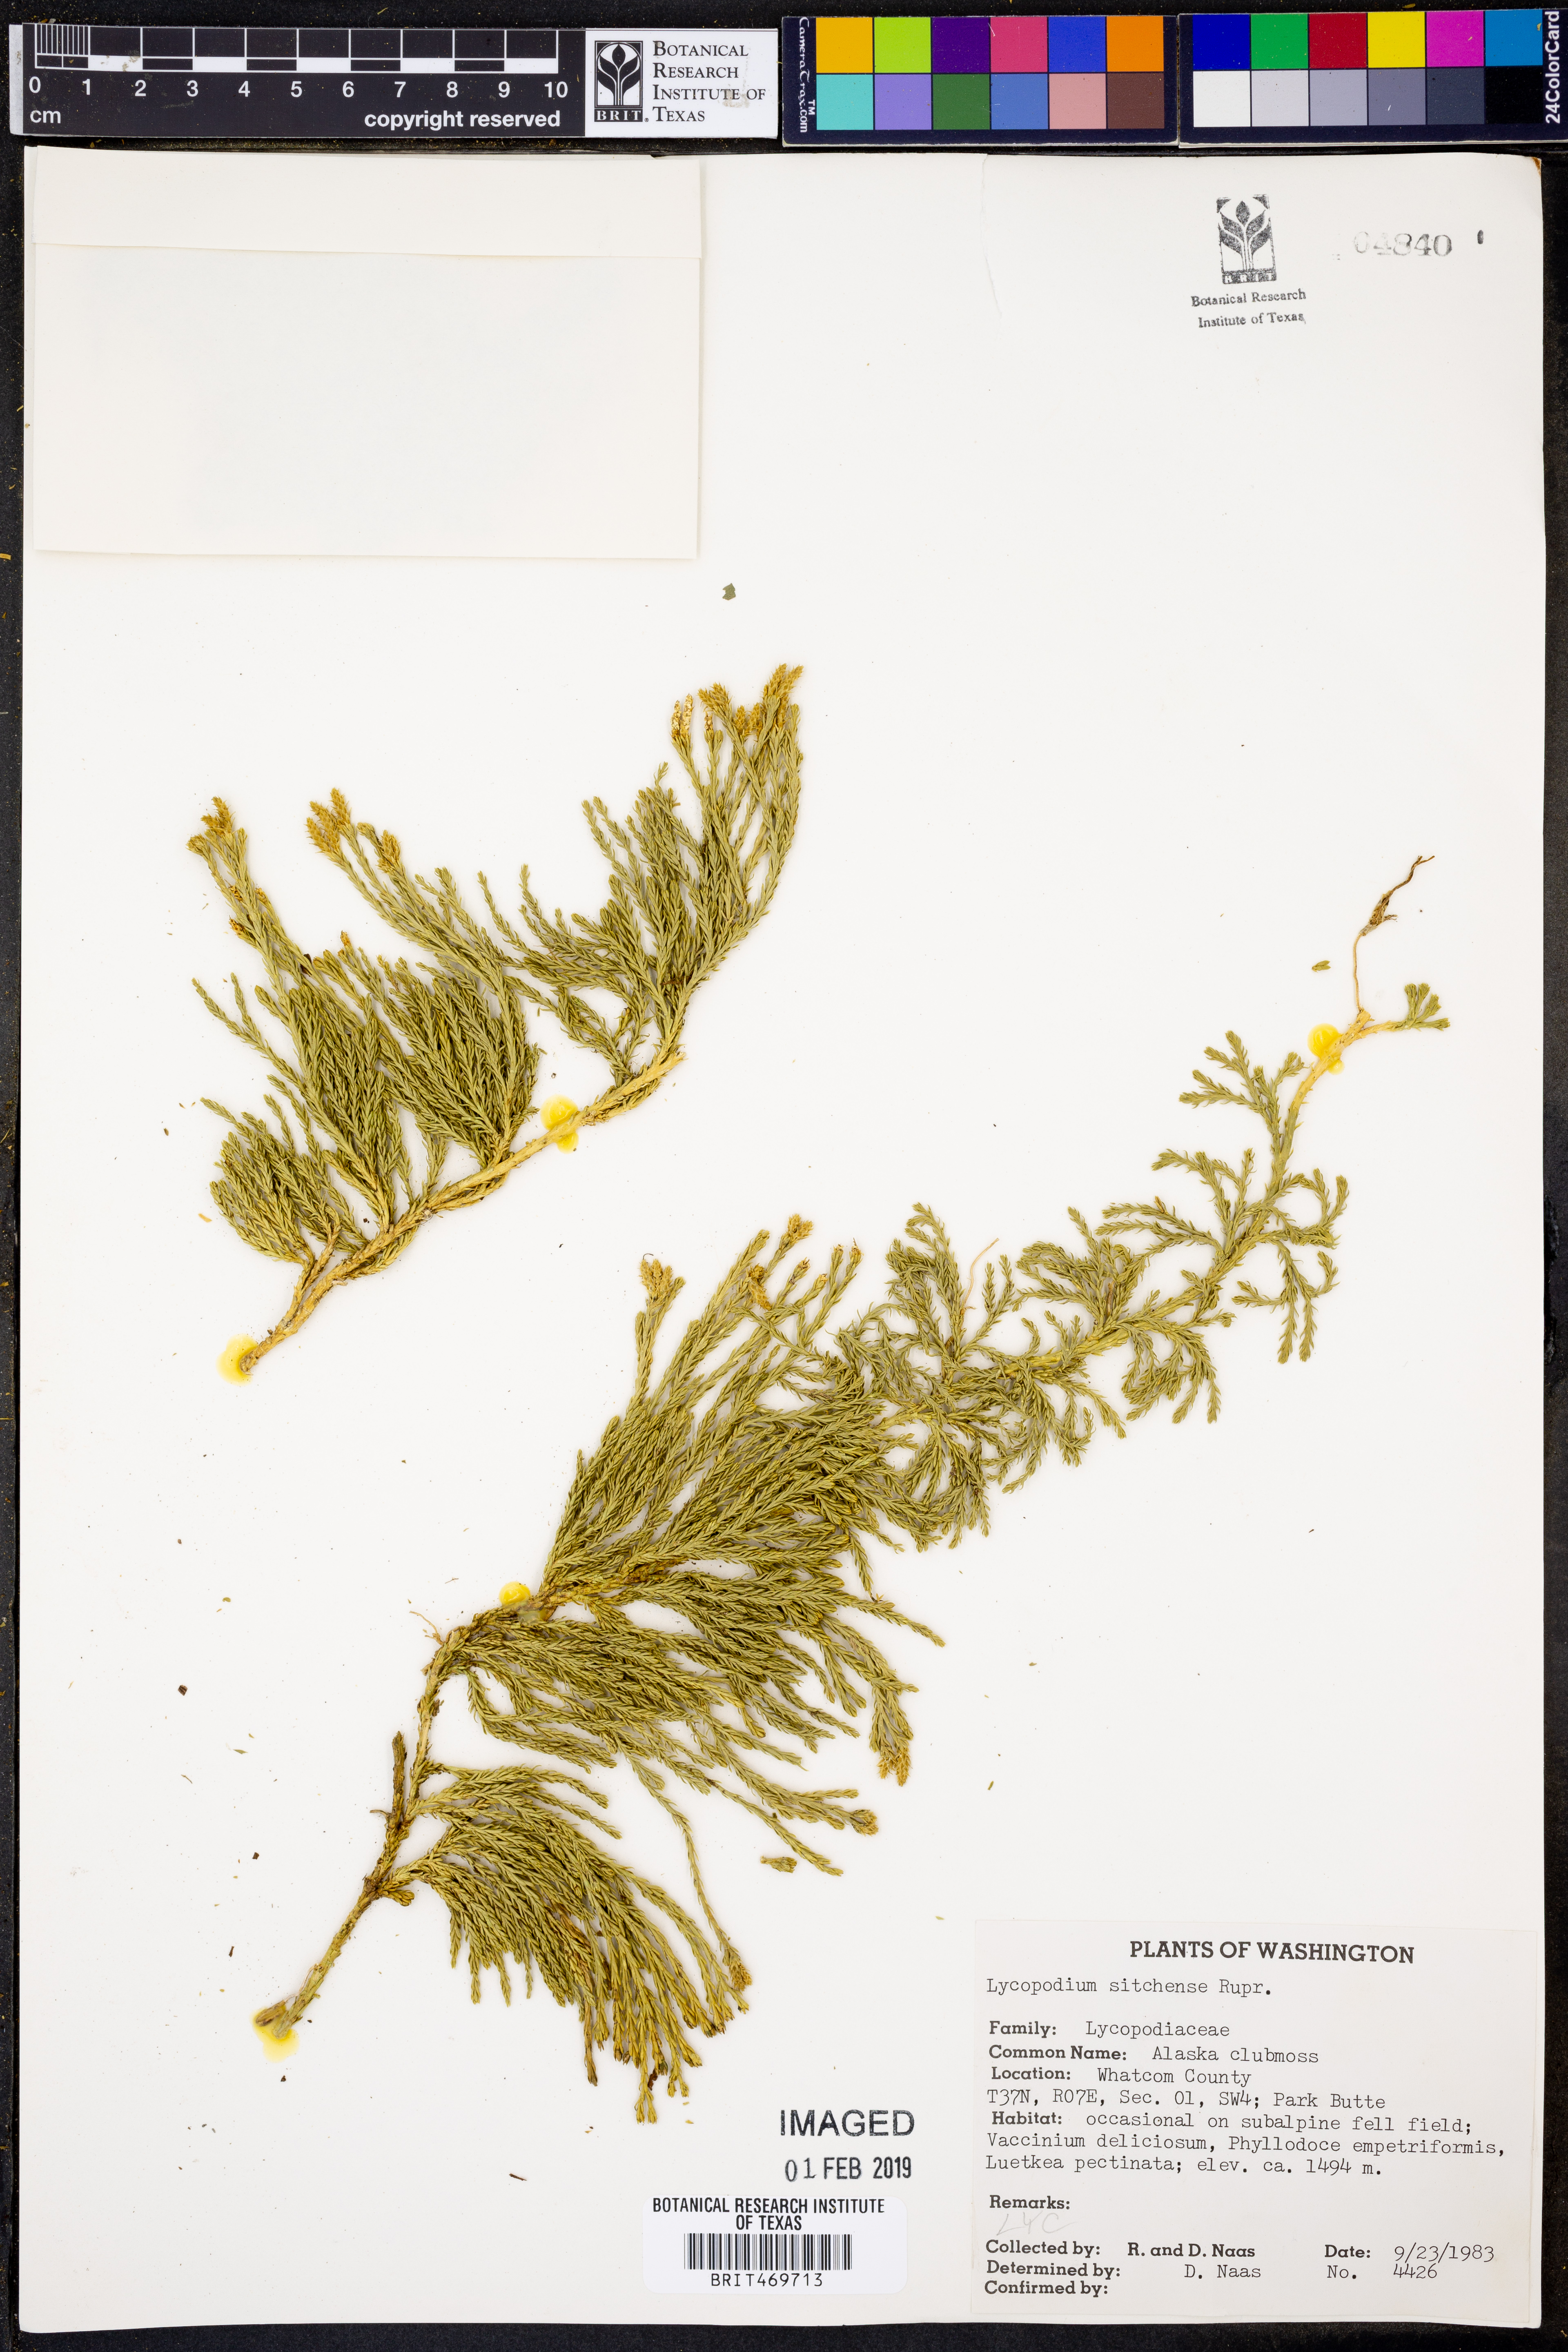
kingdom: Plantae
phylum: Tracheophyta
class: Lycopodiopsida
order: Lycopodiales
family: Lycopodiaceae
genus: Diphasiastrum
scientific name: Diphasiastrum sitchense
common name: Alaska clubmoss
